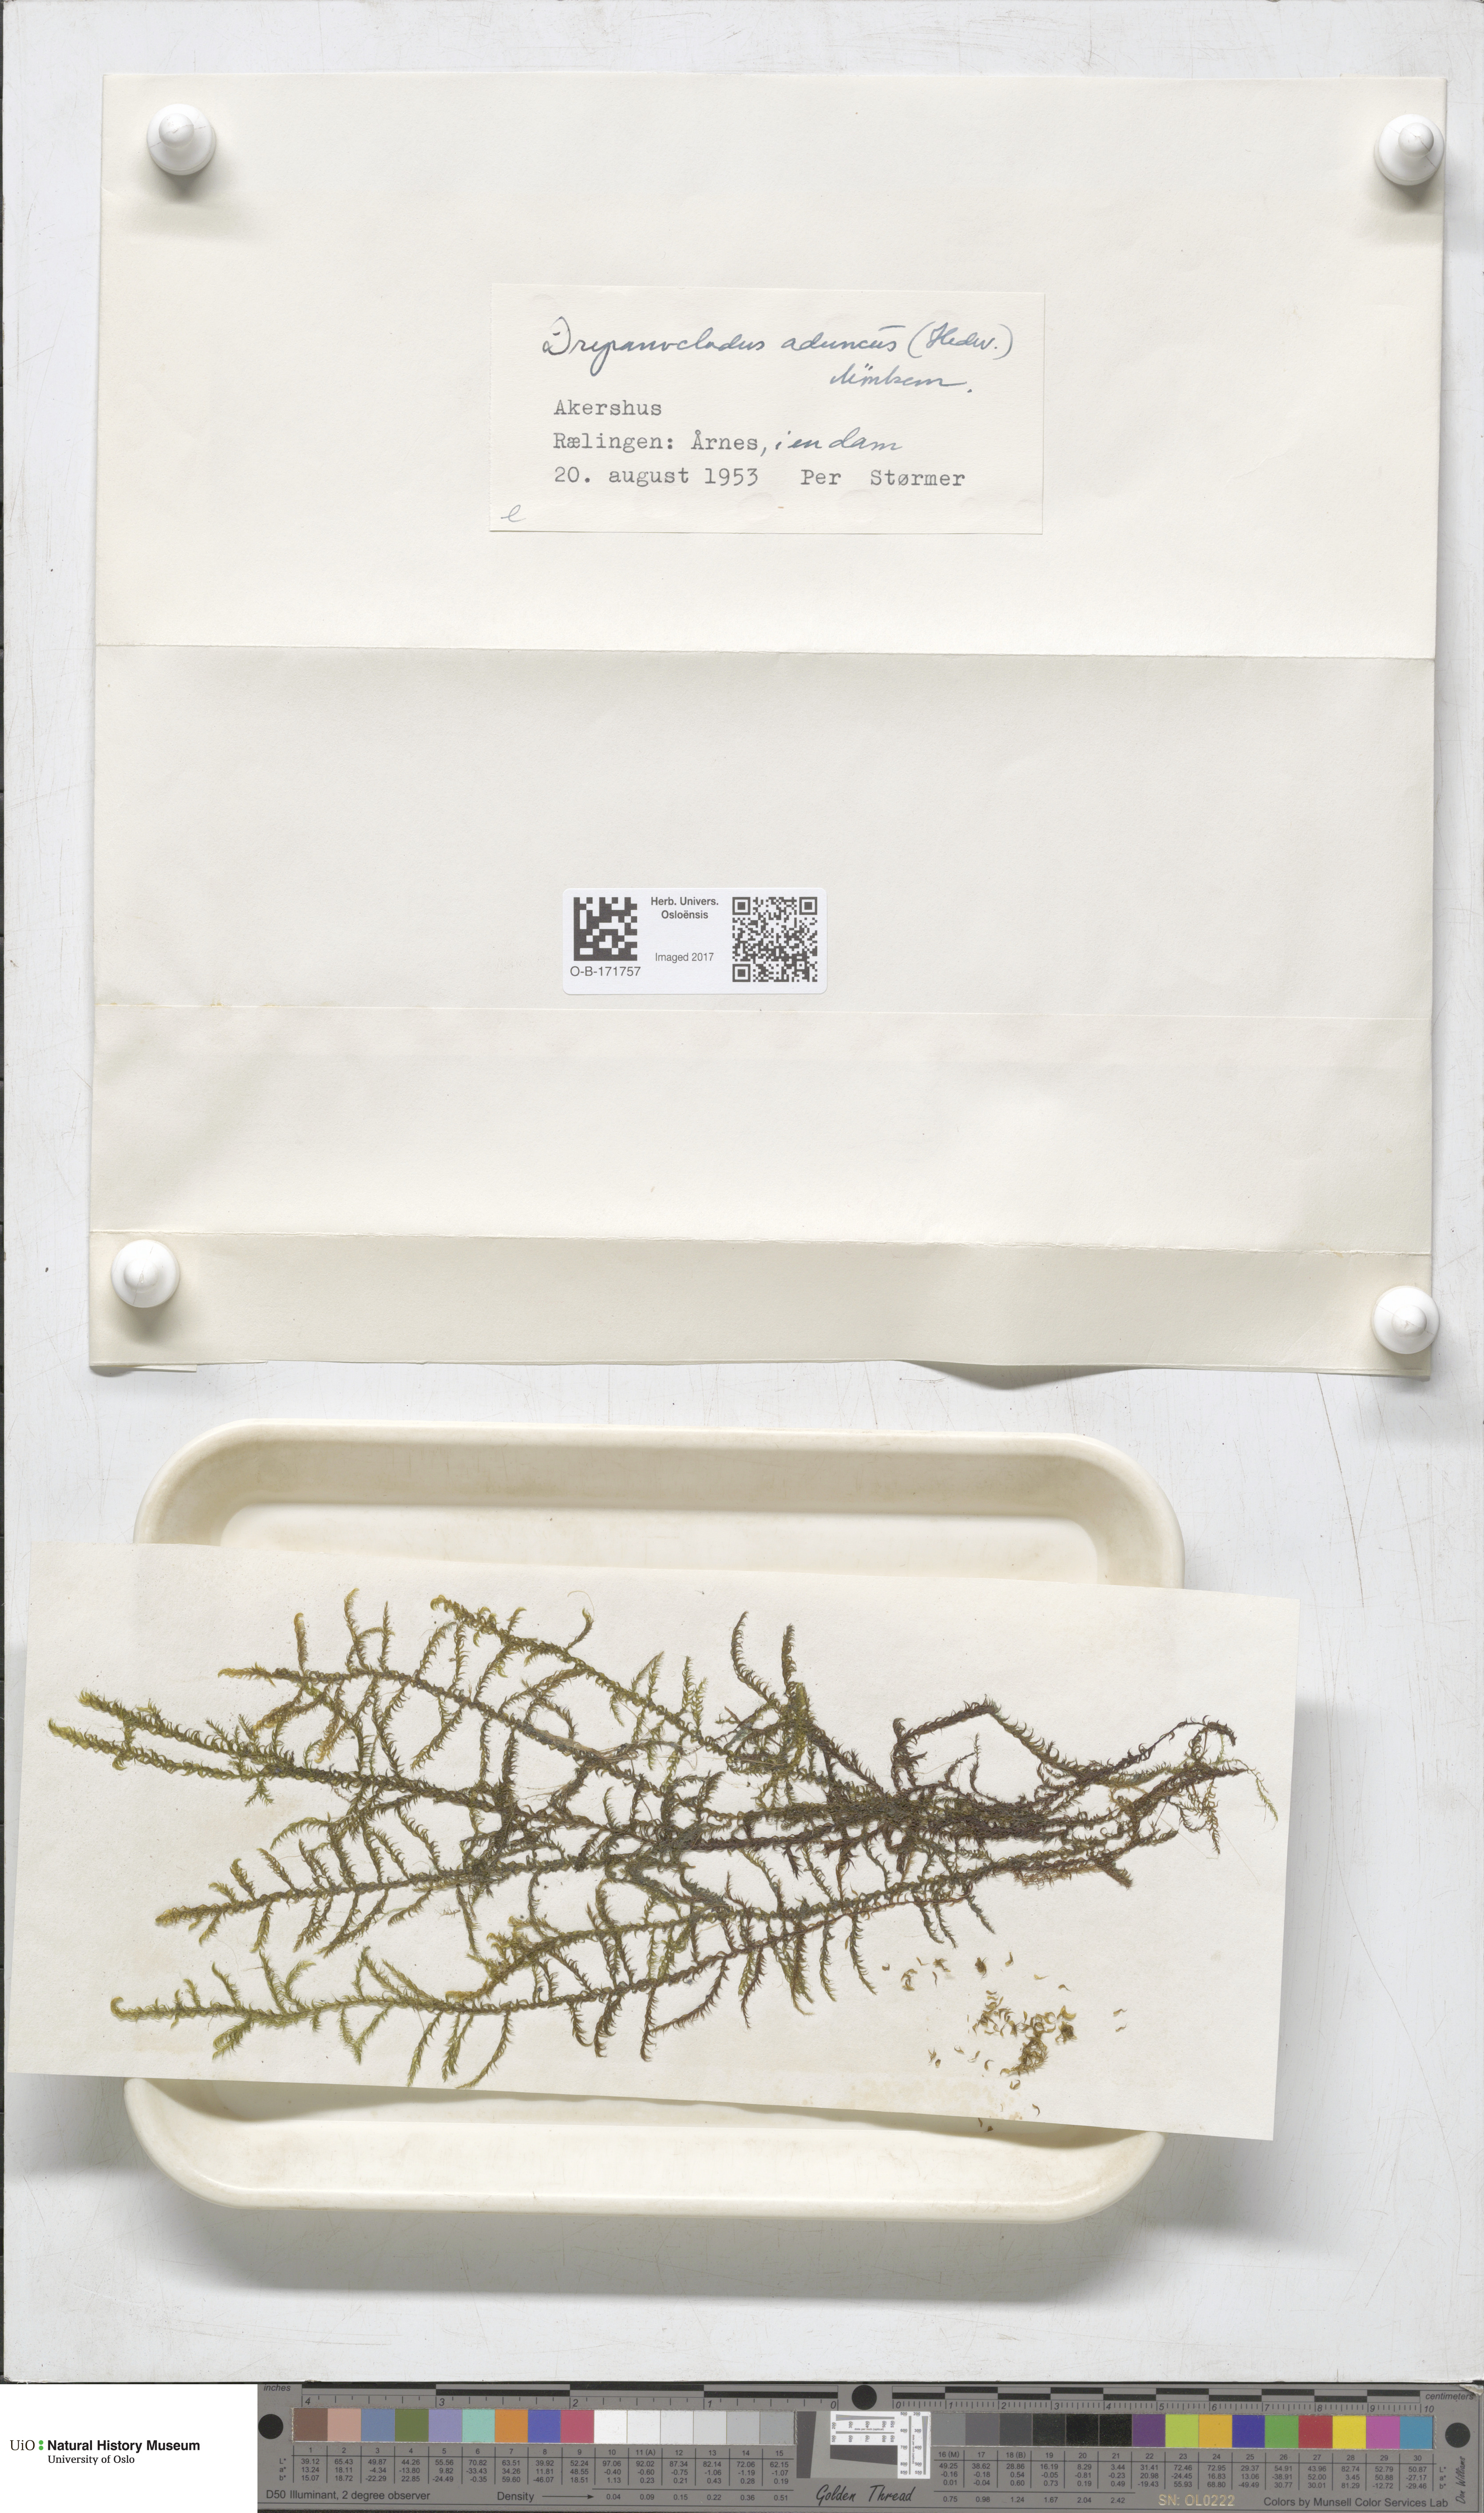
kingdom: Plantae
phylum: Bryophyta
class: Bryopsida
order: Hypnales
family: Amblystegiaceae
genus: Drepanocladus
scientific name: Drepanocladus aduncus
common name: Knieff's hook moss
